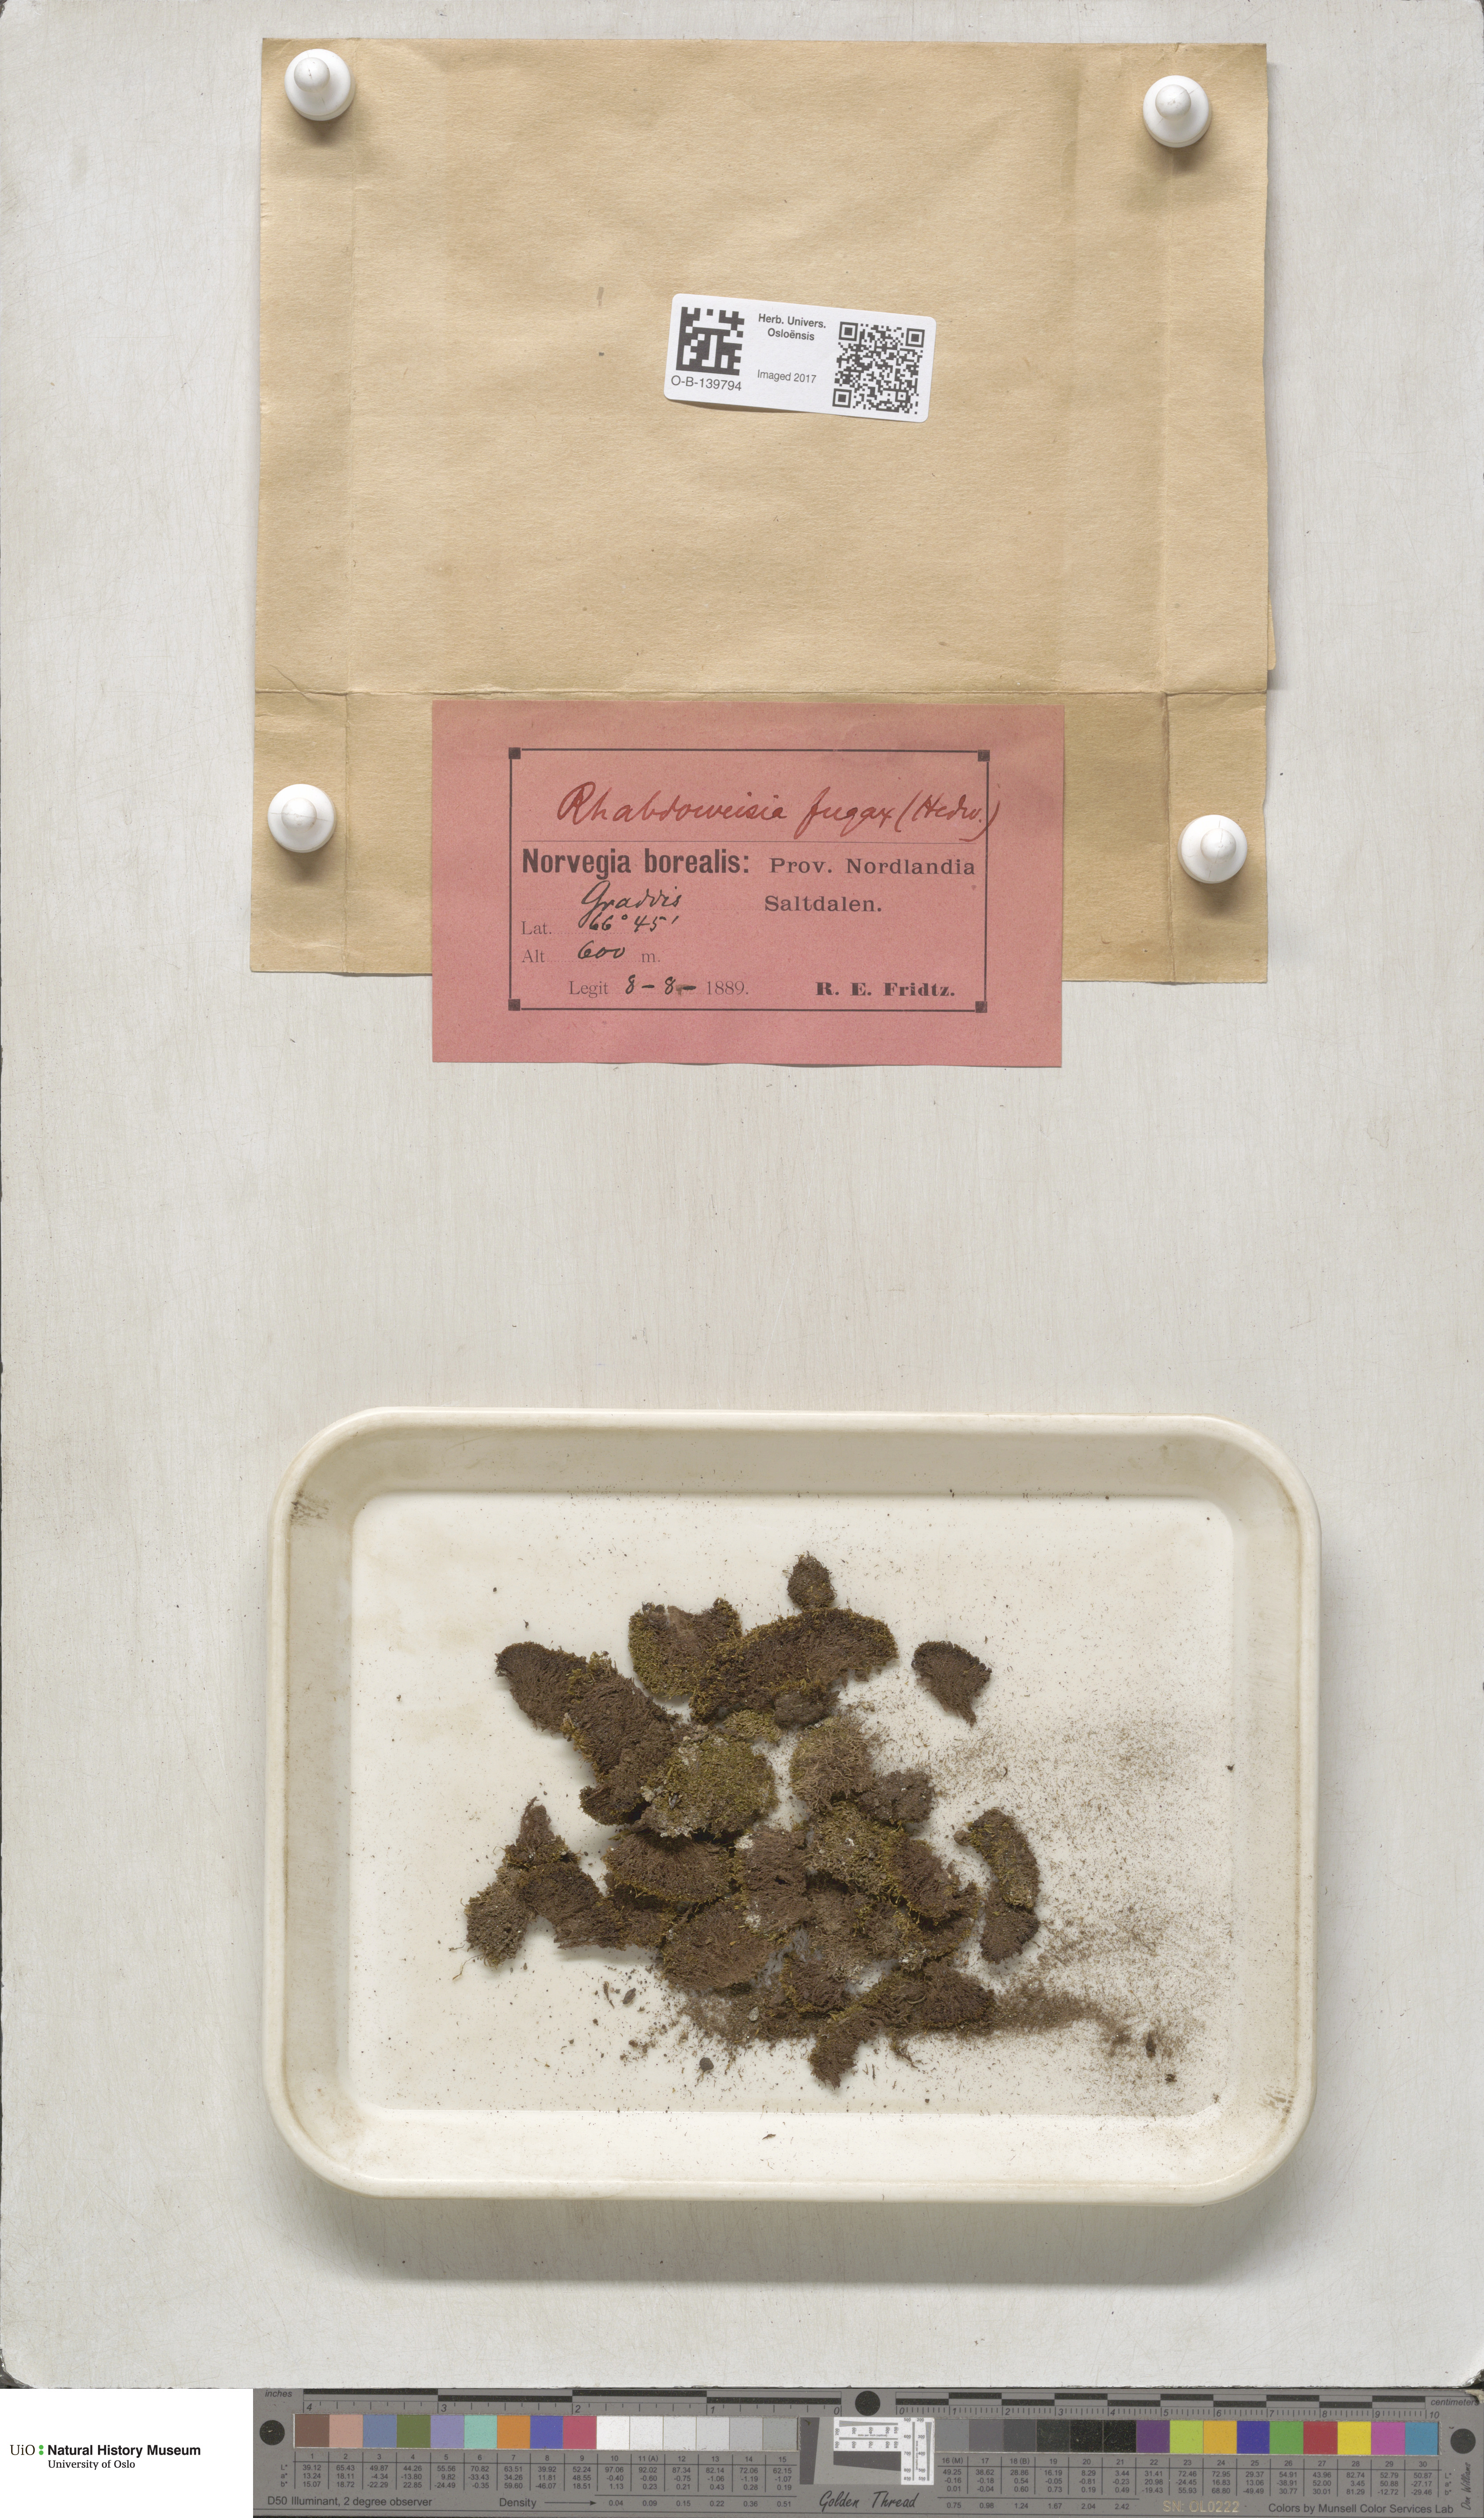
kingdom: Plantae
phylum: Bryophyta
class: Bryopsida
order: Dicranales
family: Rhabdoweisiaceae
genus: Rhabdoweisia
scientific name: Rhabdoweisia fugax
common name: Dwarf streak-moss
